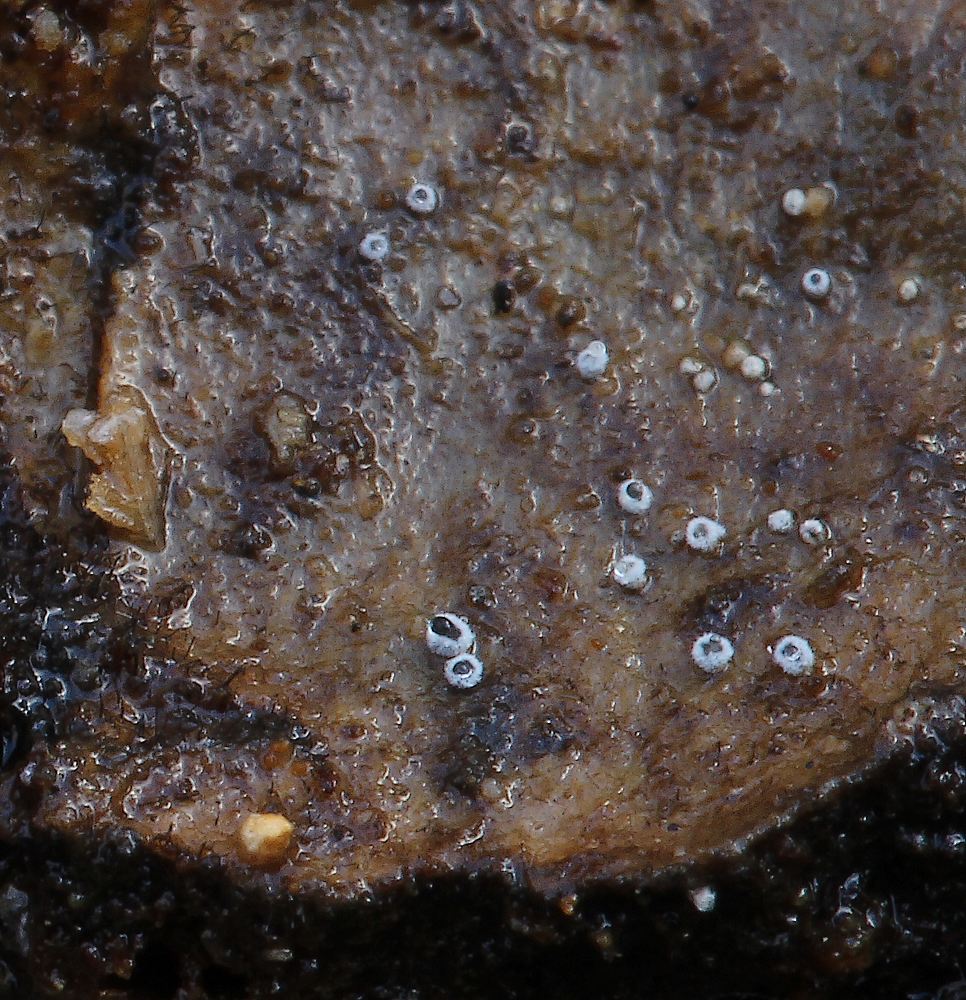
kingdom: Fungi
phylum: Ascomycota
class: Leotiomycetes
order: Helotiales
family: Lachnaceae
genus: Proliferodiscus
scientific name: Proliferodiscus pulveraceus
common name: askegrå frynseskive
